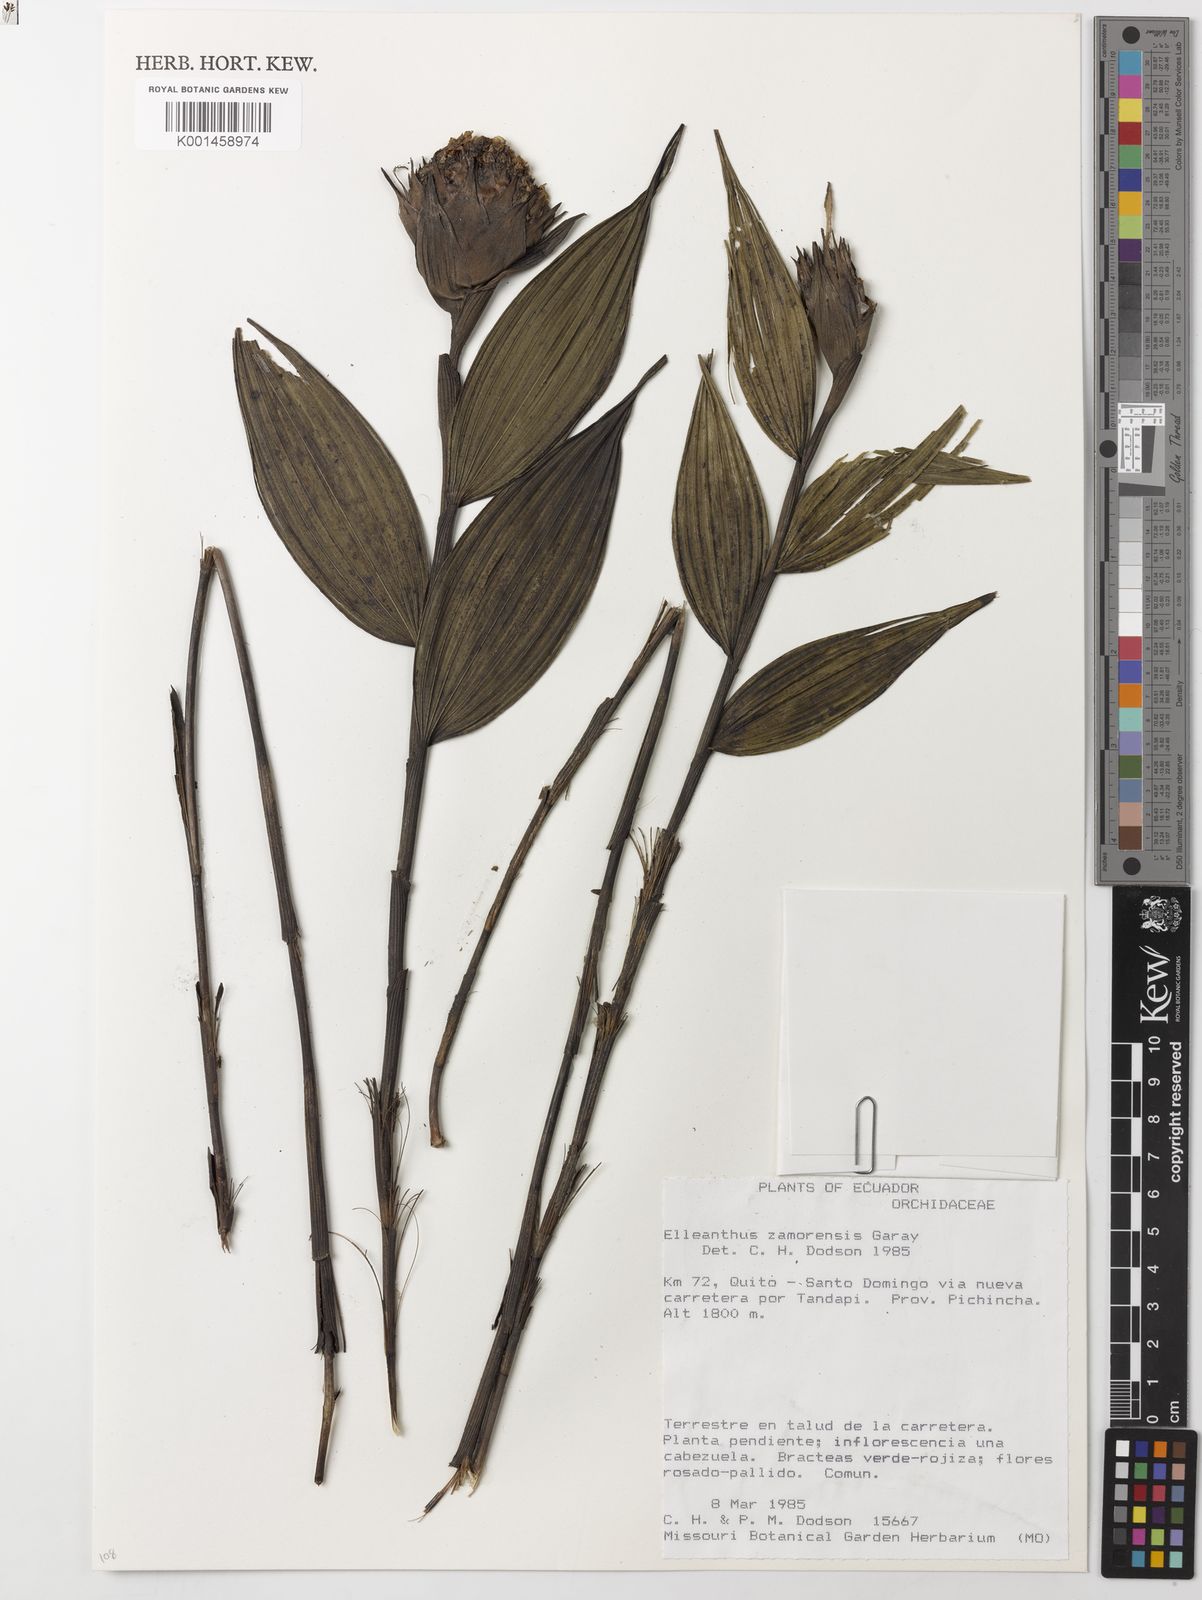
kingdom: Plantae
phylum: Tracheophyta
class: Liliopsida
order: Asparagales
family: Orchidaceae
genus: Elleanthus
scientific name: Elleanthus capitatus
